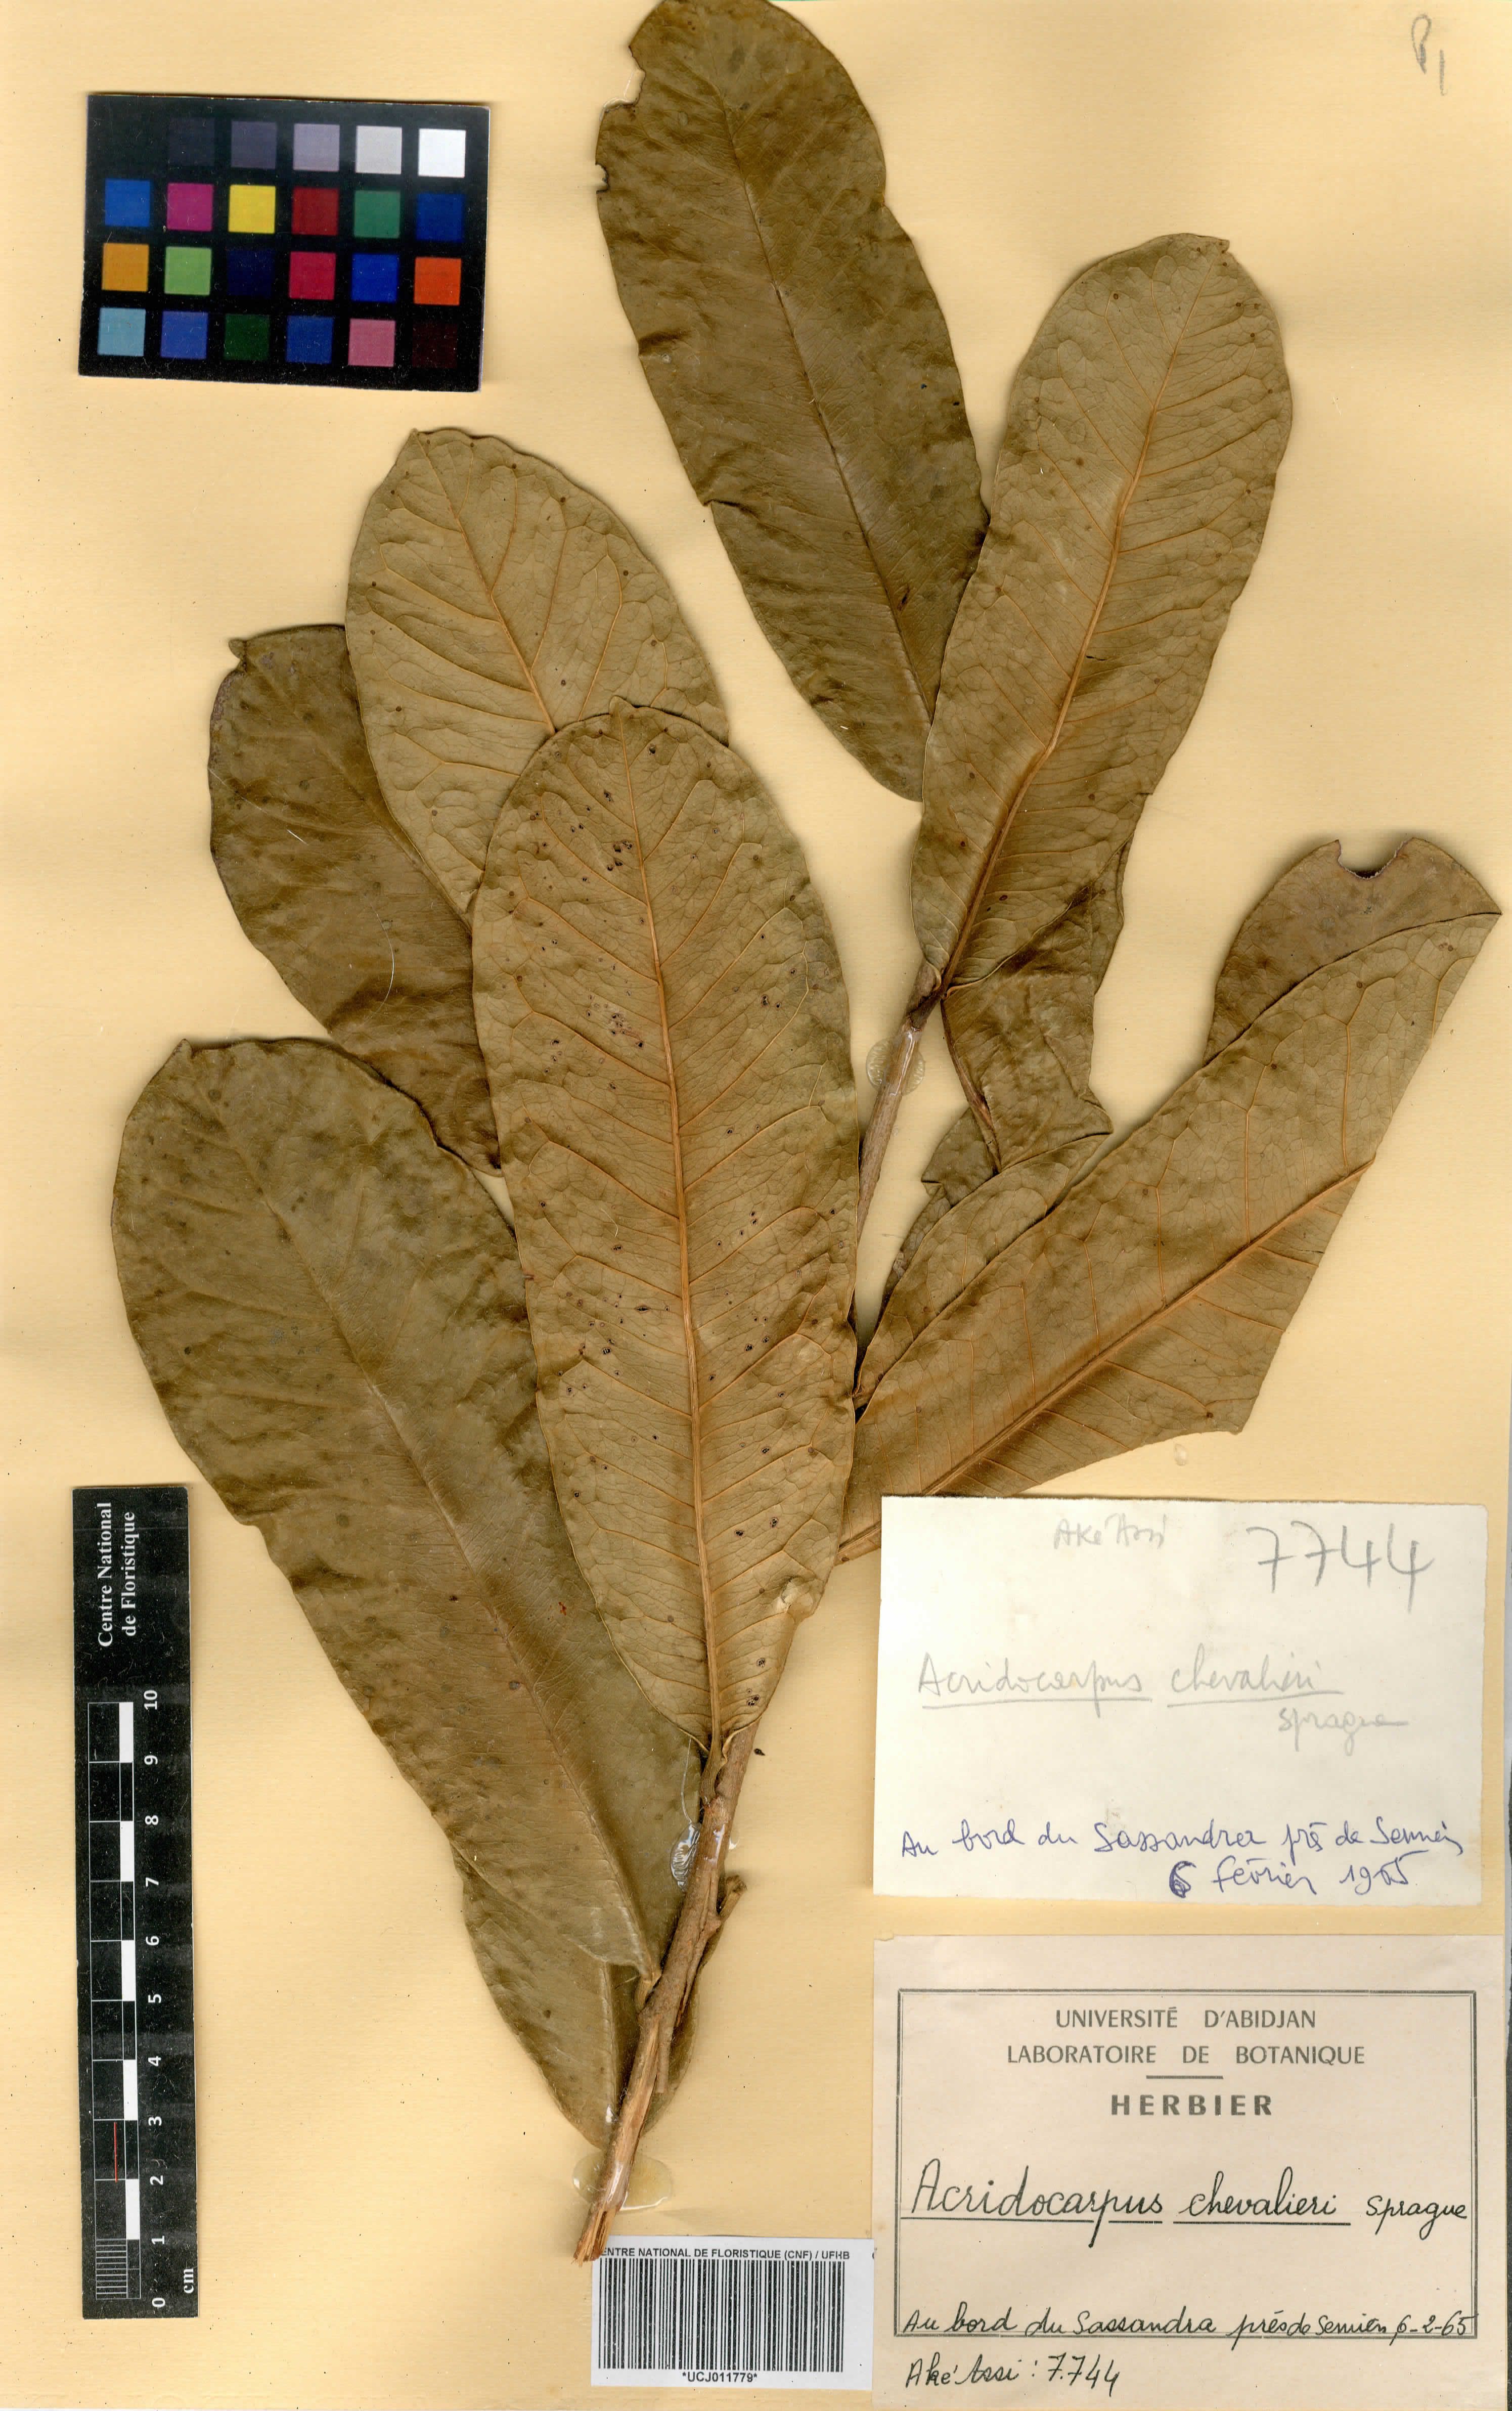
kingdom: Plantae
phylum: Tracheophyta
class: Magnoliopsida
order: Malpighiales
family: Malpighiaceae
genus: Acridocarpus
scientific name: Acridocarpus chevalieri
